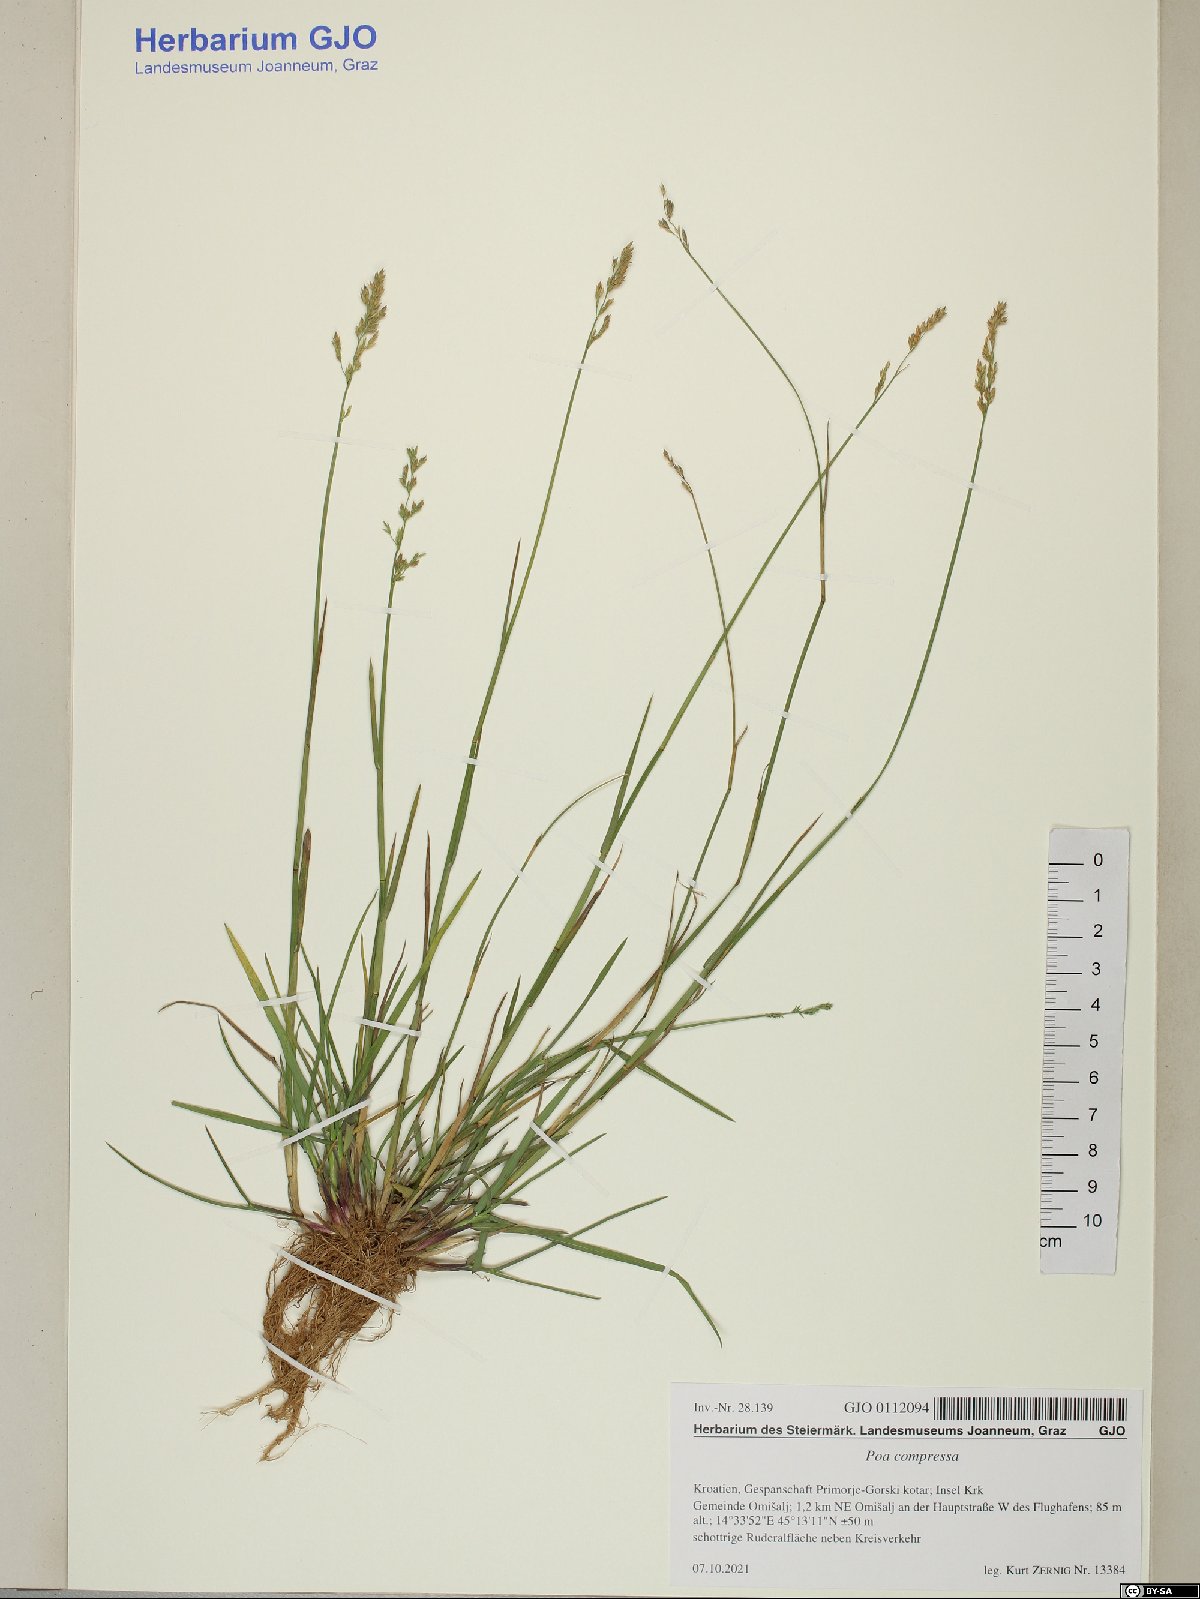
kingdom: Plantae
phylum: Tracheophyta
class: Liliopsida
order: Poales
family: Poaceae
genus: Poa
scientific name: Poa compressa
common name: Canada bluegrass
